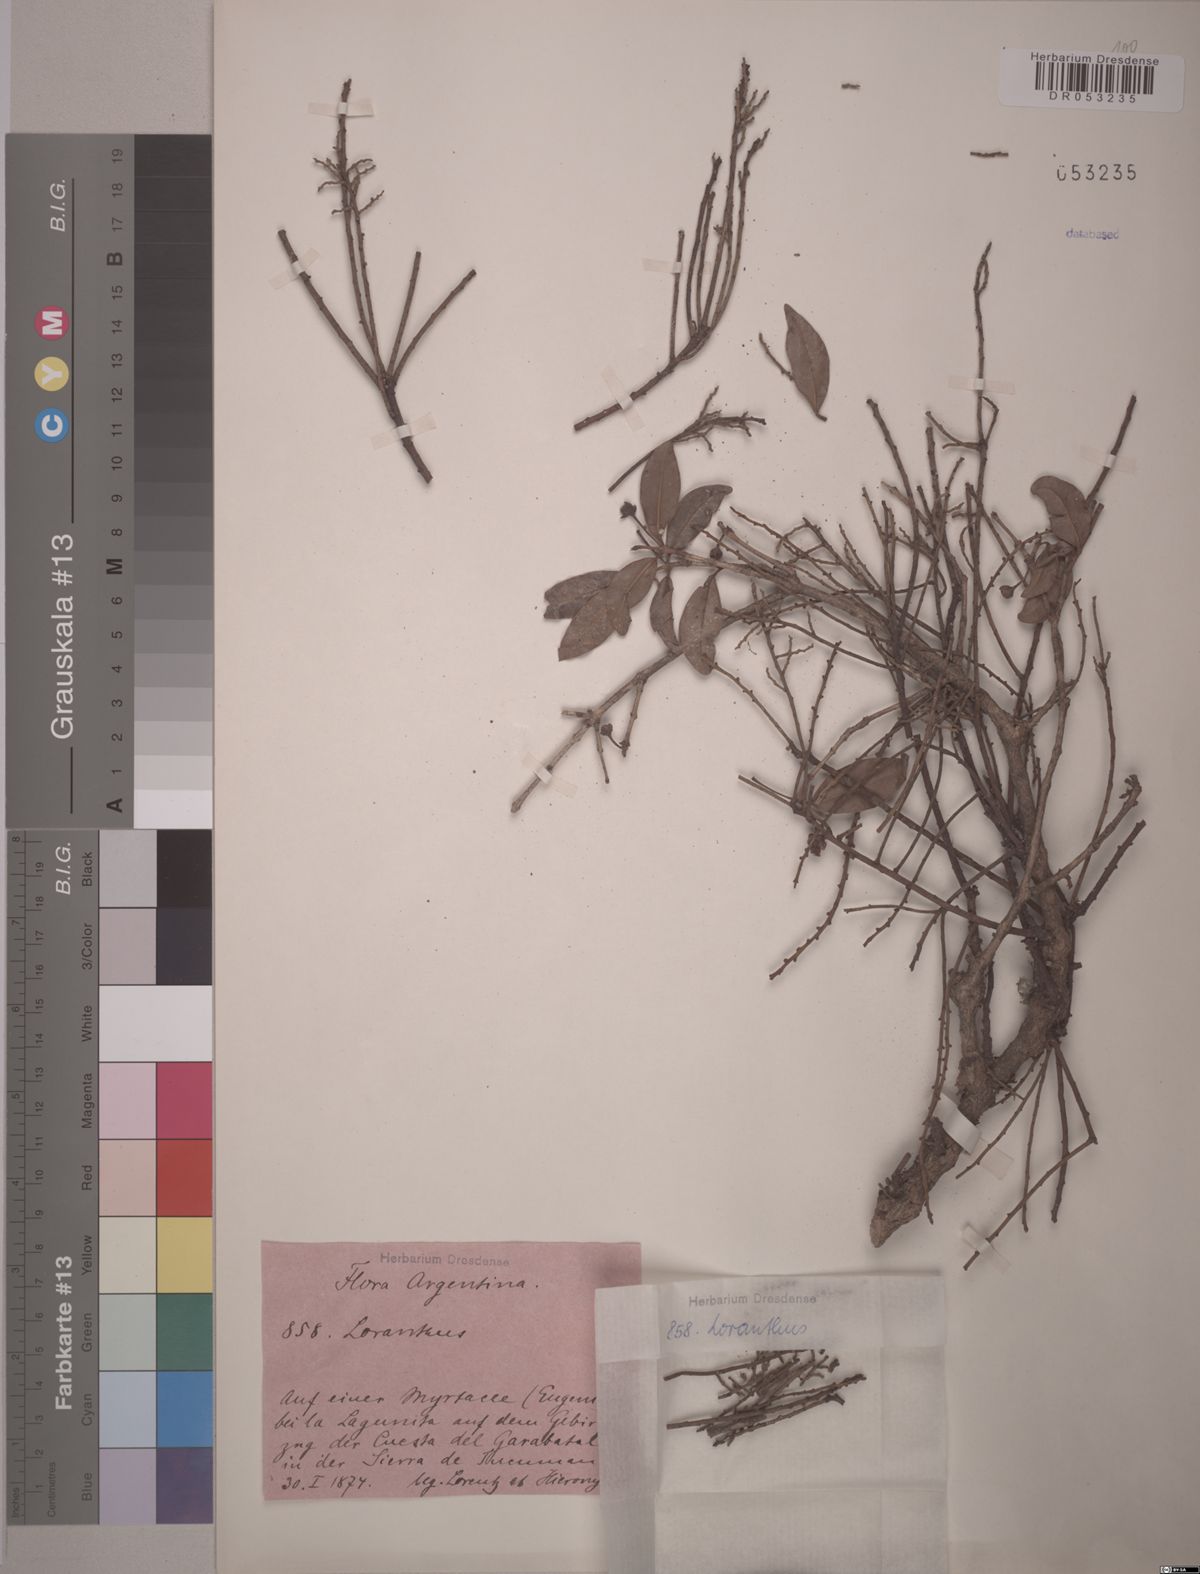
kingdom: Plantae
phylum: Tracheophyta
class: Magnoliopsida
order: Santalales
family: Santalaceae
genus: Eubrachion
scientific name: Eubrachion ambiguum
